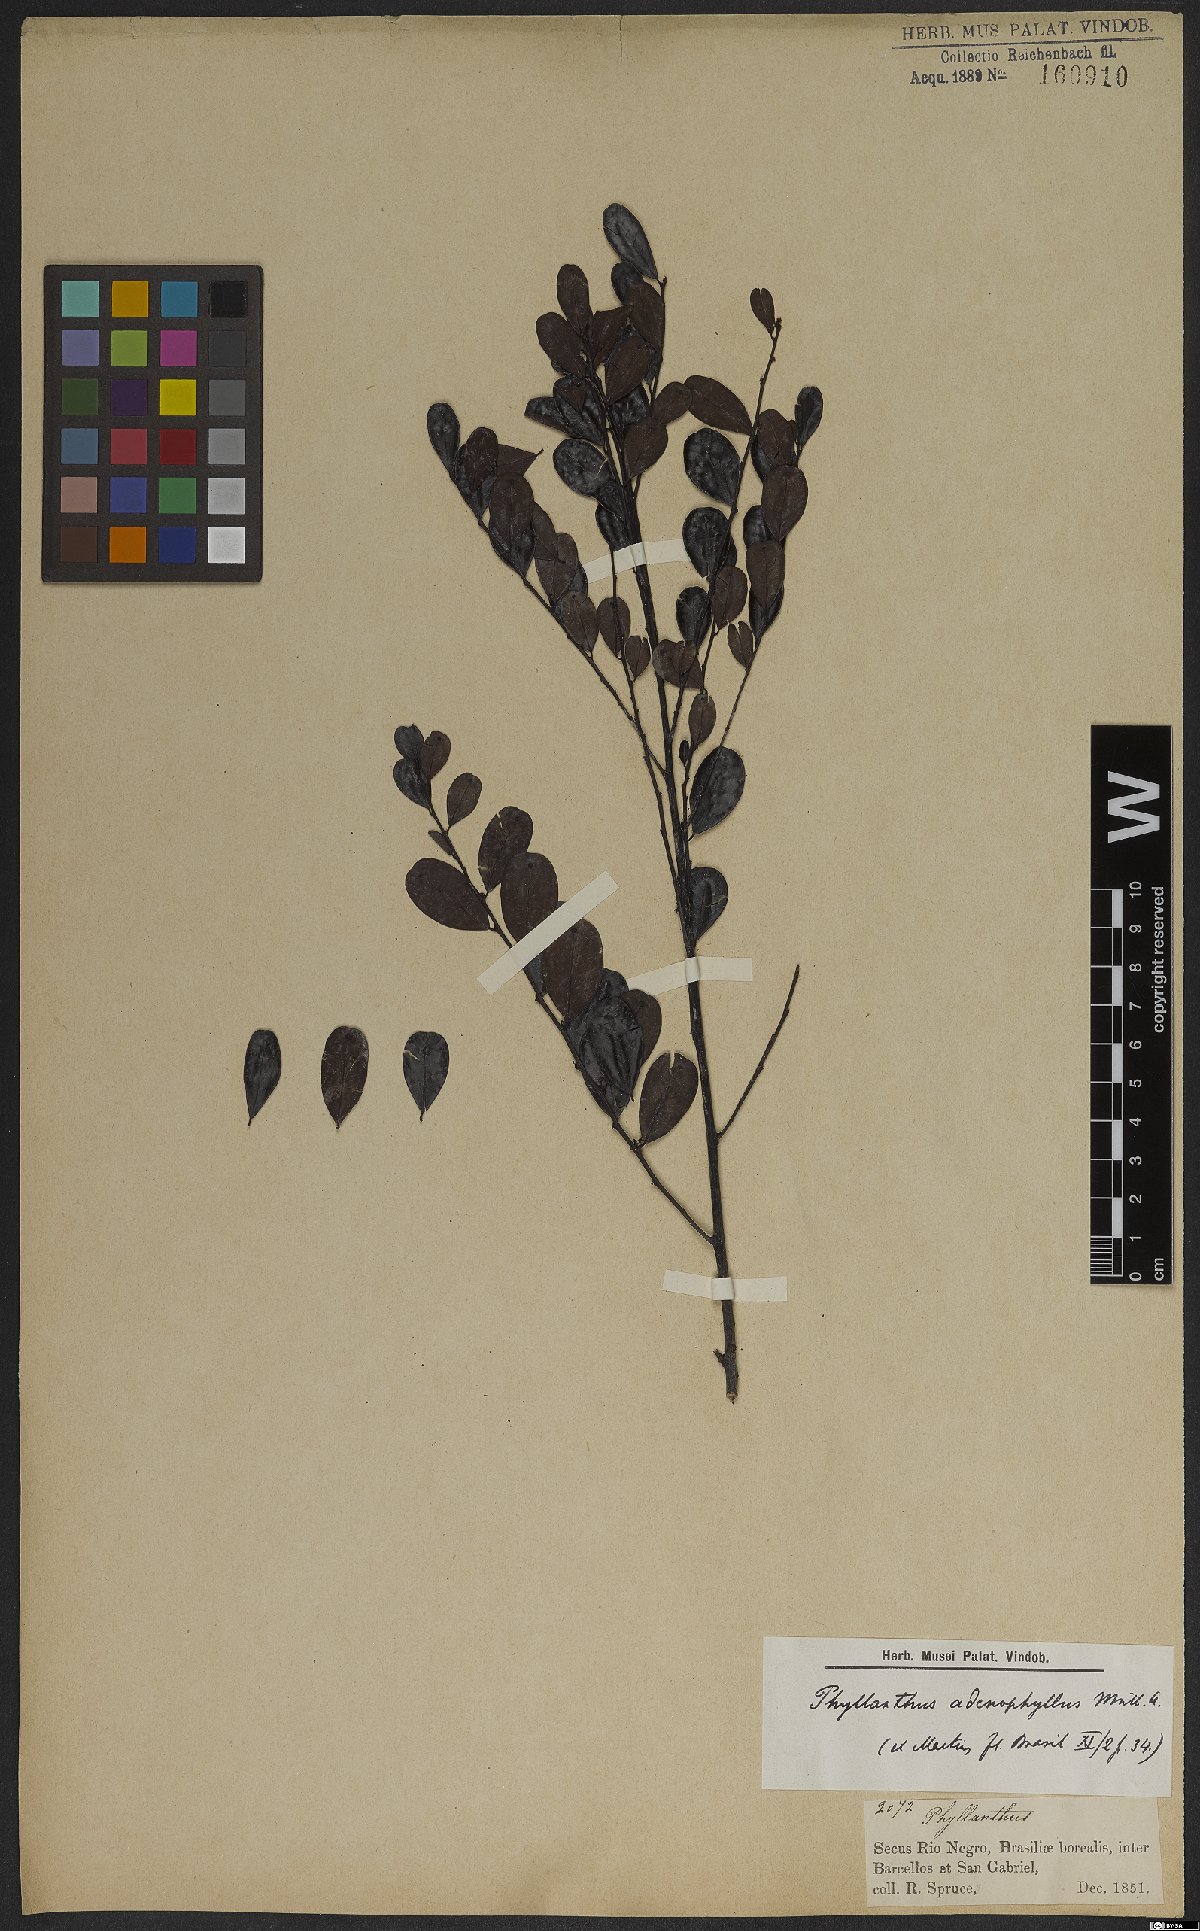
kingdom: Plantae
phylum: Tracheophyta
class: Magnoliopsida
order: Malpighiales
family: Phyllanthaceae
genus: Phyllanthus
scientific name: Phyllanthus myrsinites
